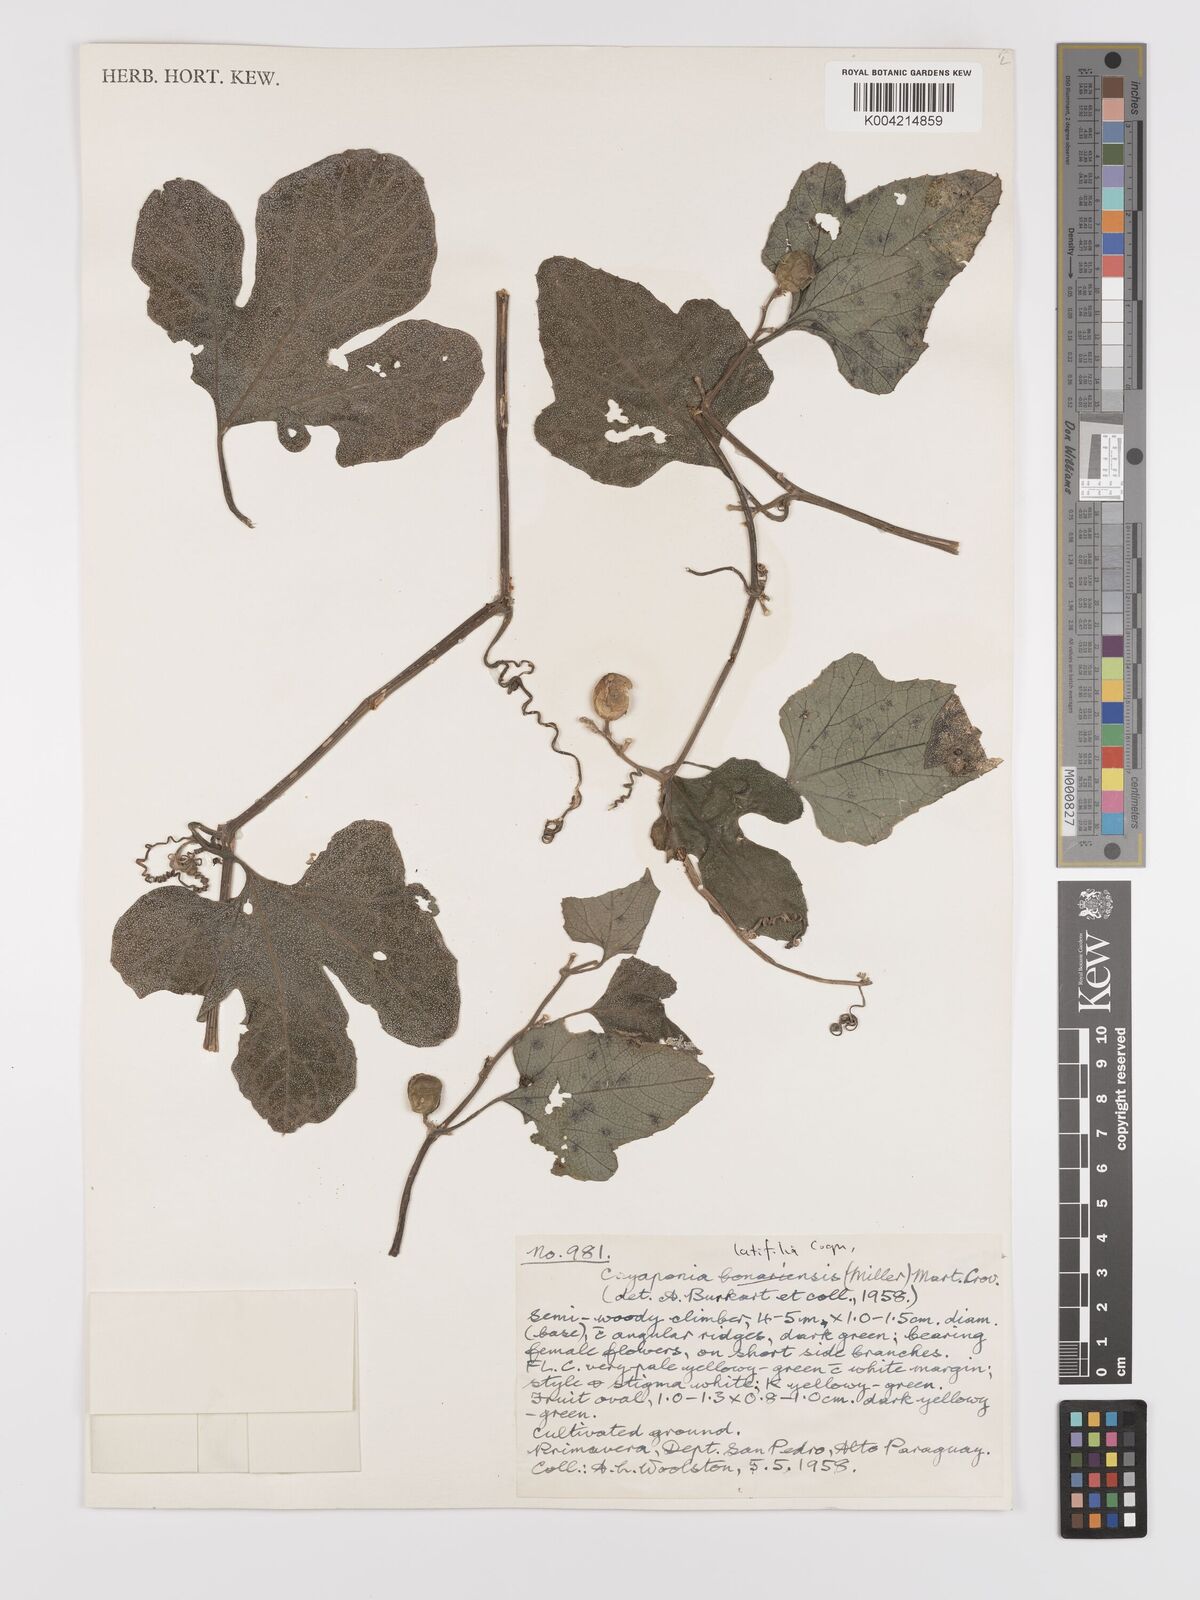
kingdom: Plantae
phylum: Tracheophyta
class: Magnoliopsida
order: Cucurbitales
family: Cucurbitaceae
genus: Cayaponia
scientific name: Cayaponia citrullifolia
